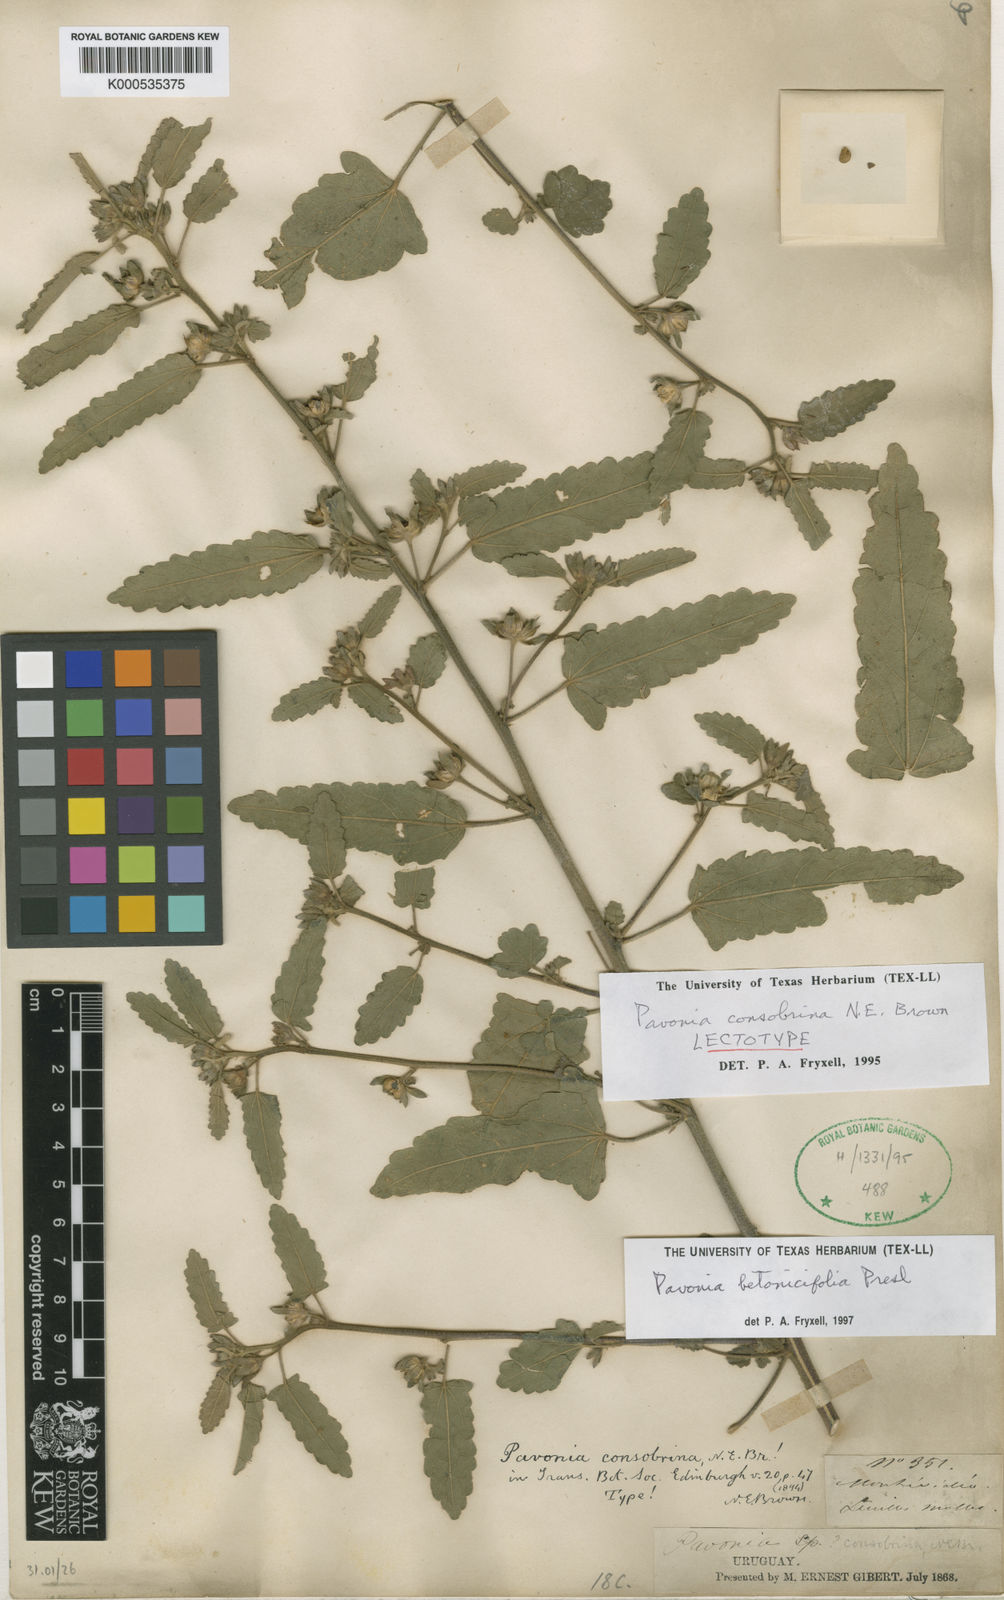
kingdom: Plantae
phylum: Tracheophyta
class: Magnoliopsida
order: Malvales
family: Malvaceae
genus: Pavonia
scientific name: Pavonia betonicifolia
